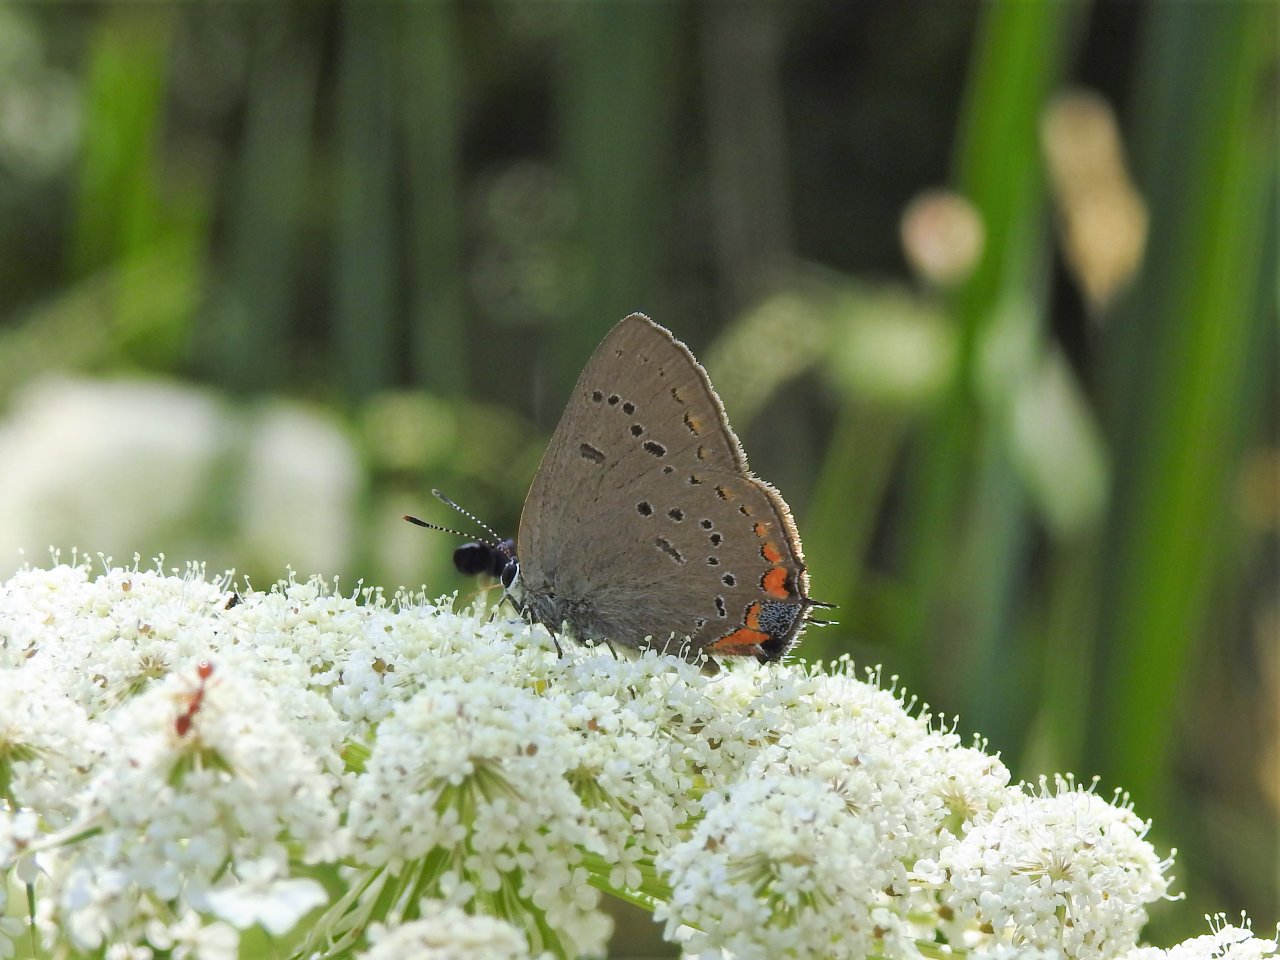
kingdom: Animalia
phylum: Arthropoda
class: Insecta
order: Lepidoptera
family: Lycaenidae
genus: Strymon
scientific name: Strymon acadica
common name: Acadian Hairstreak
